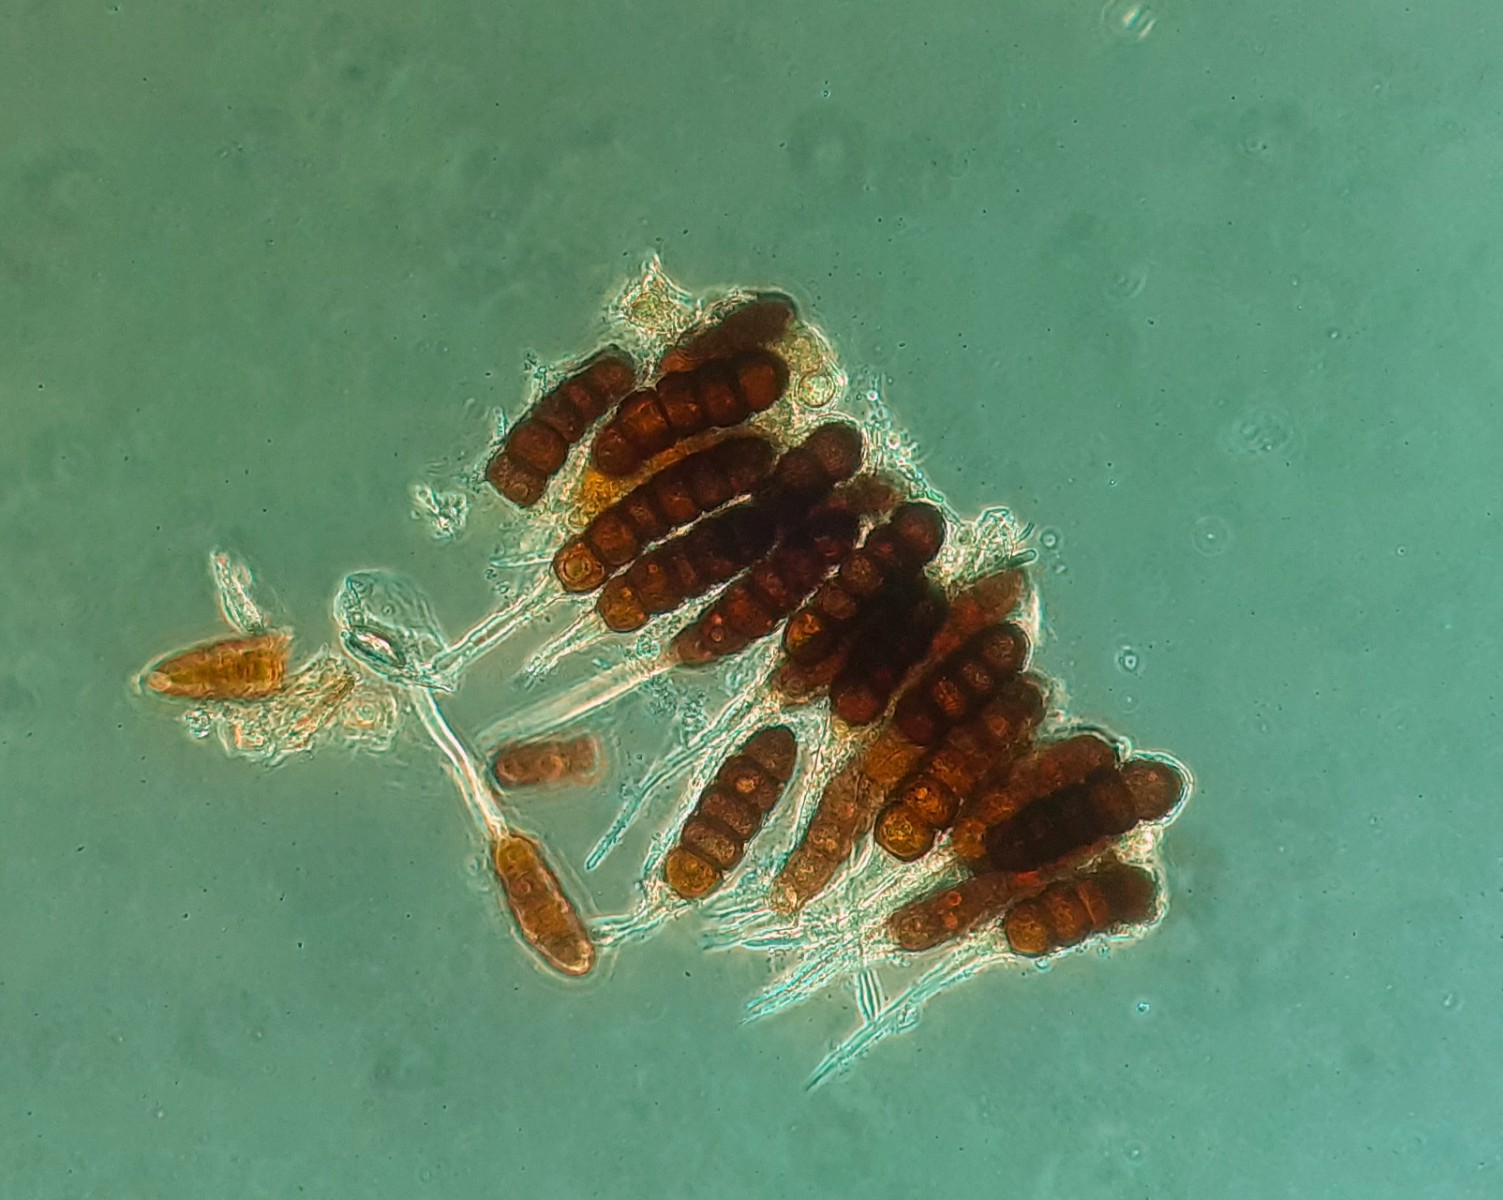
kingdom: Fungi
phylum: Basidiomycota
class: Pucciniomycetes
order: Pucciniales
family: Phragmidiaceae
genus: Phragmidium
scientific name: Phragmidium potentillae
